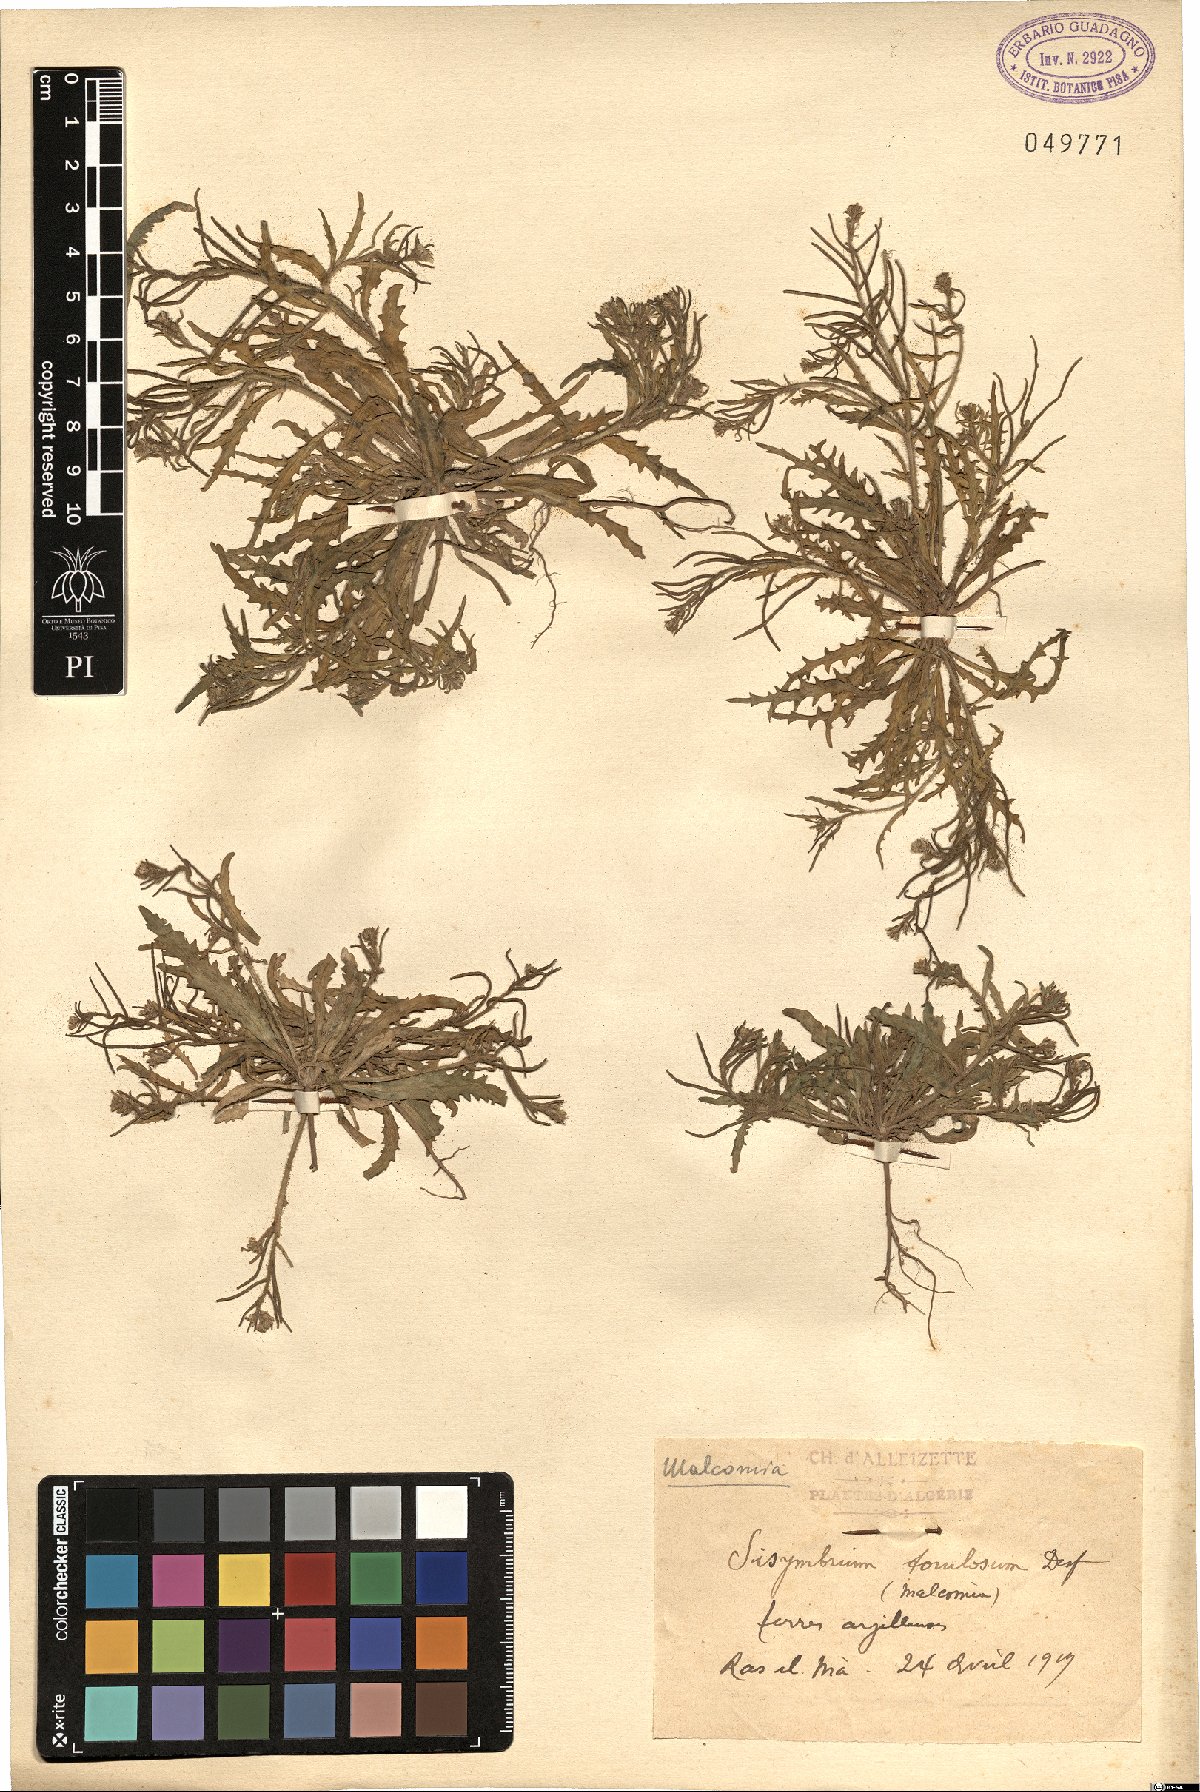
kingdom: Plantae
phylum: Tracheophyta
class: Magnoliopsida
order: Brassicales
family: Brassicaceae
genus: Neotorularia
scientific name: Neotorularia torulosa
